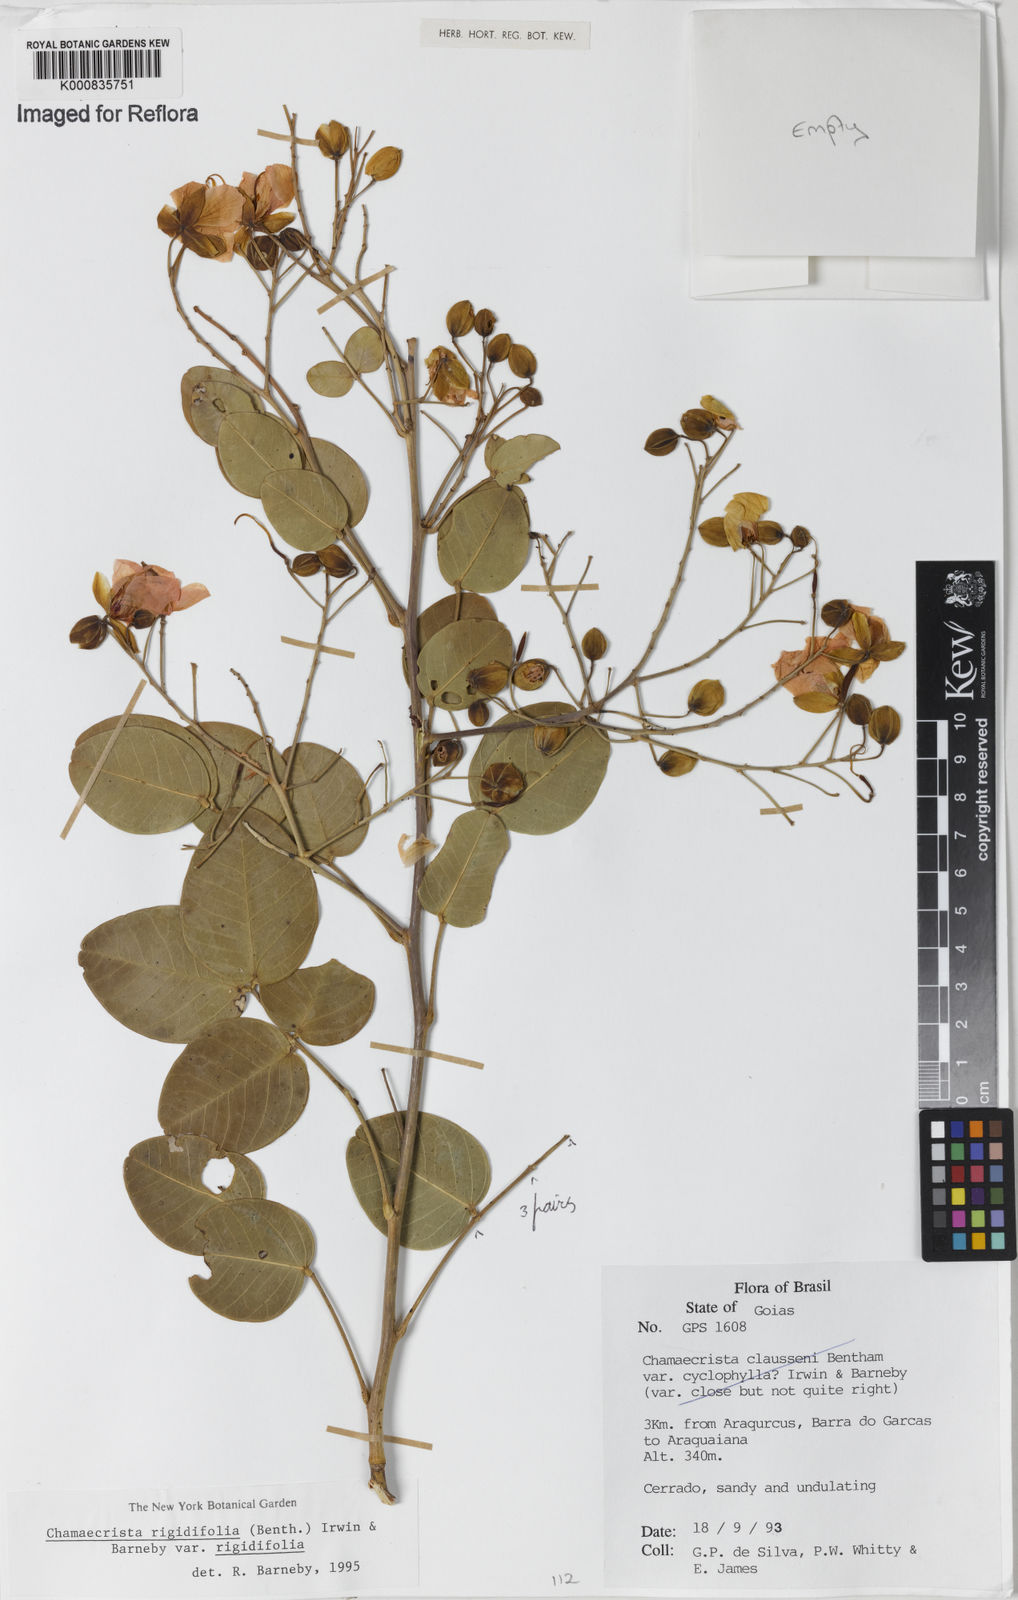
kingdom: Plantae
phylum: Tracheophyta
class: Magnoliopsida
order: Fabales
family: Fabaceae
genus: Chamaecrista
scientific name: Chamaecrista rigidifolia
